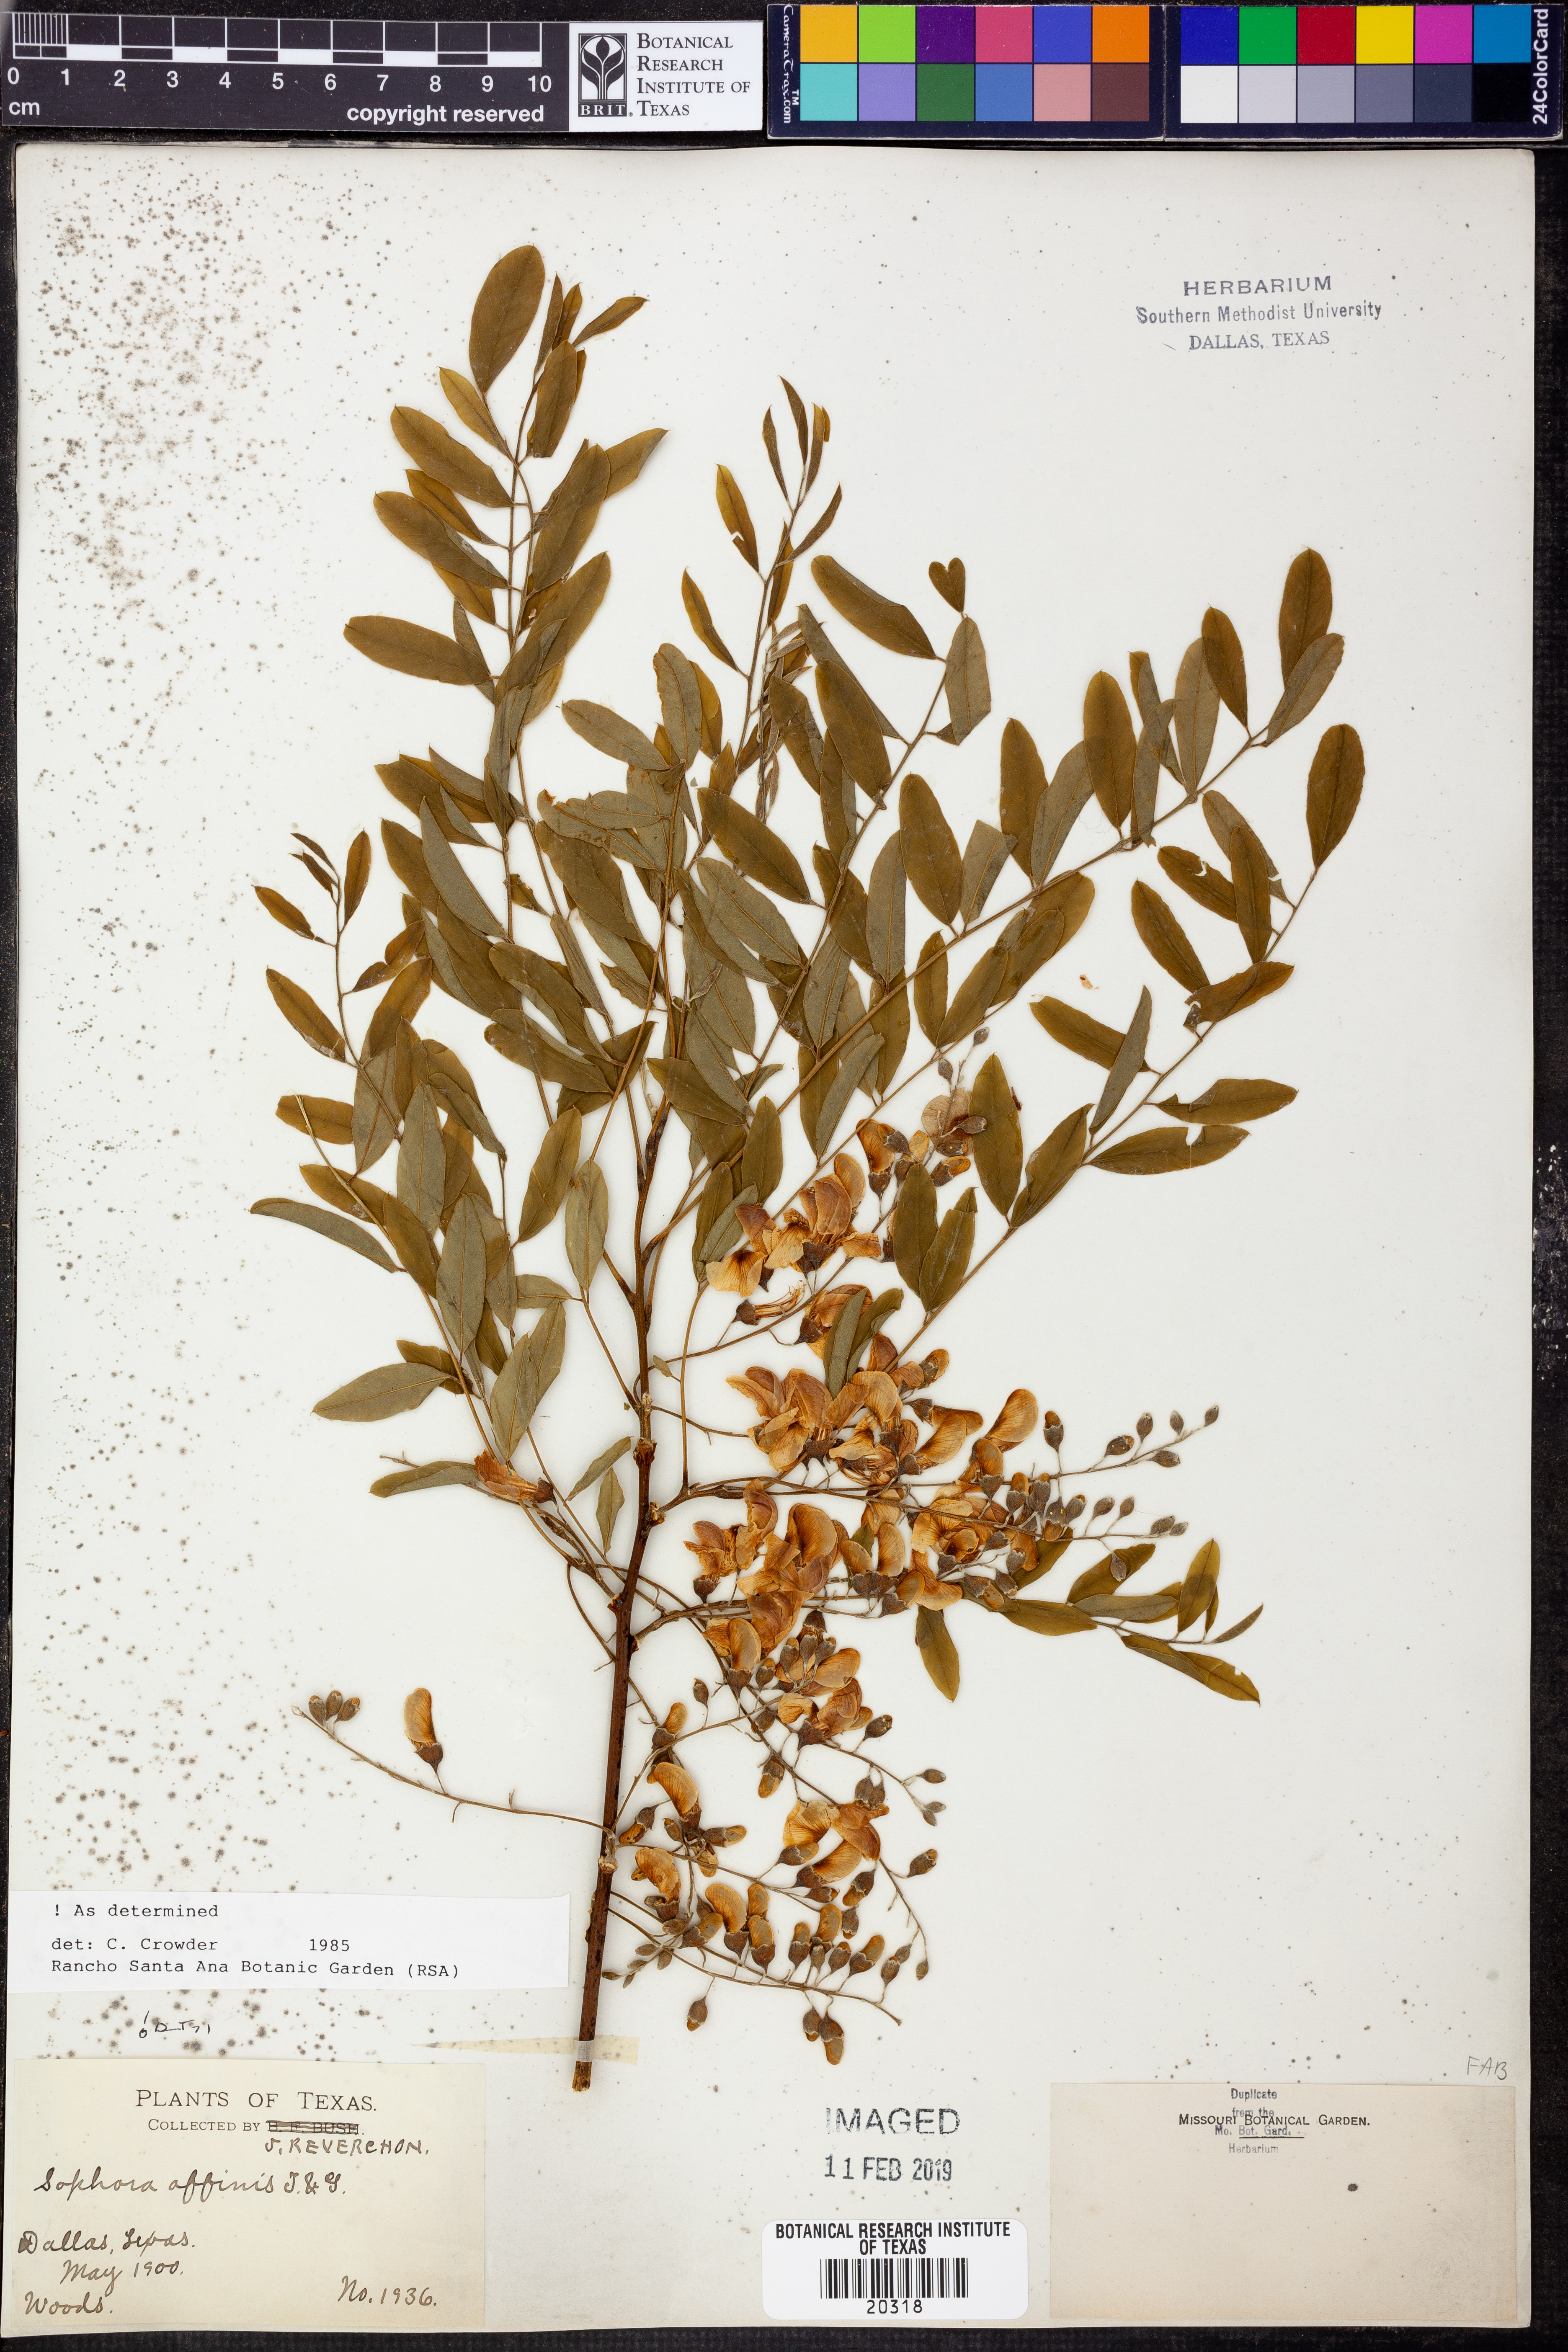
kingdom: Plantae
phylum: Tracheophyta
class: Magnoliopsida
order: Fabales
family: Fabaceae
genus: Styphnolobium
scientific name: Styphnolobium affine
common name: Texas sophora
